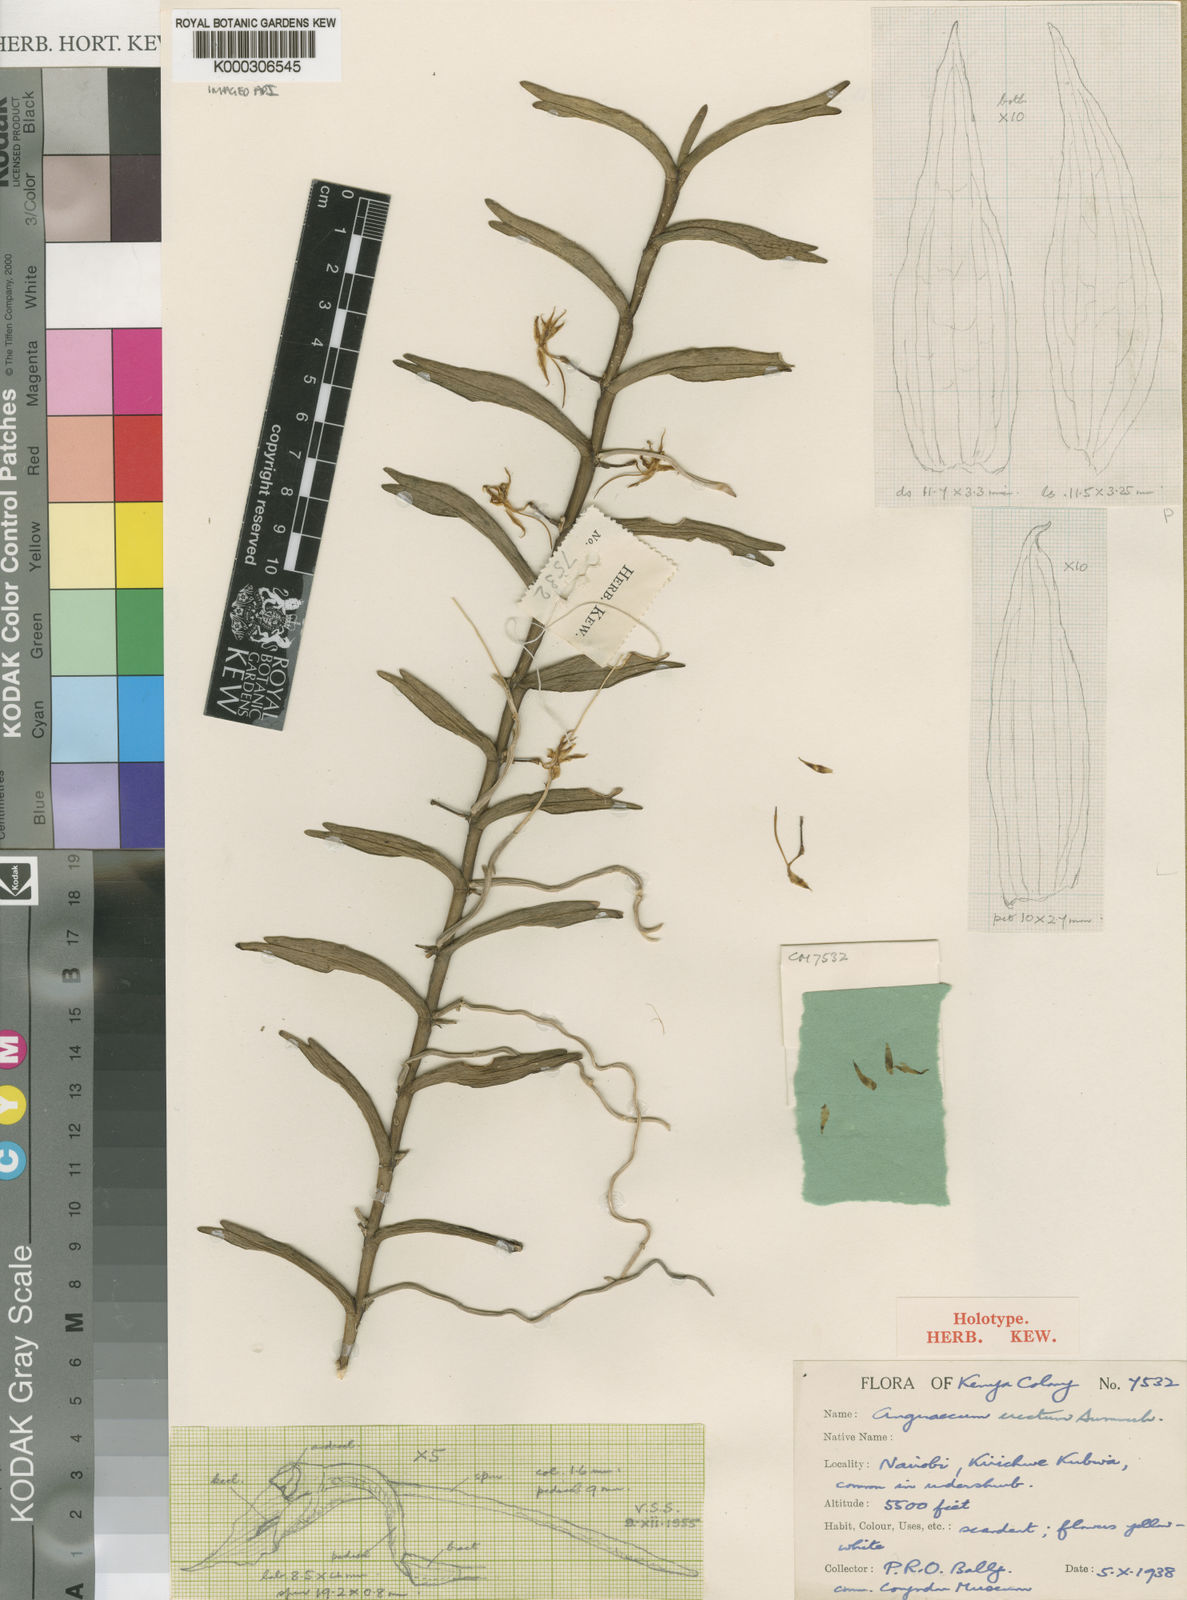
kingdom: Plantae
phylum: Tracheophyta
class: Liliopsida
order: Asparagales
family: Orchidaceae
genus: Angraecum
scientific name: Angraecum erectum
